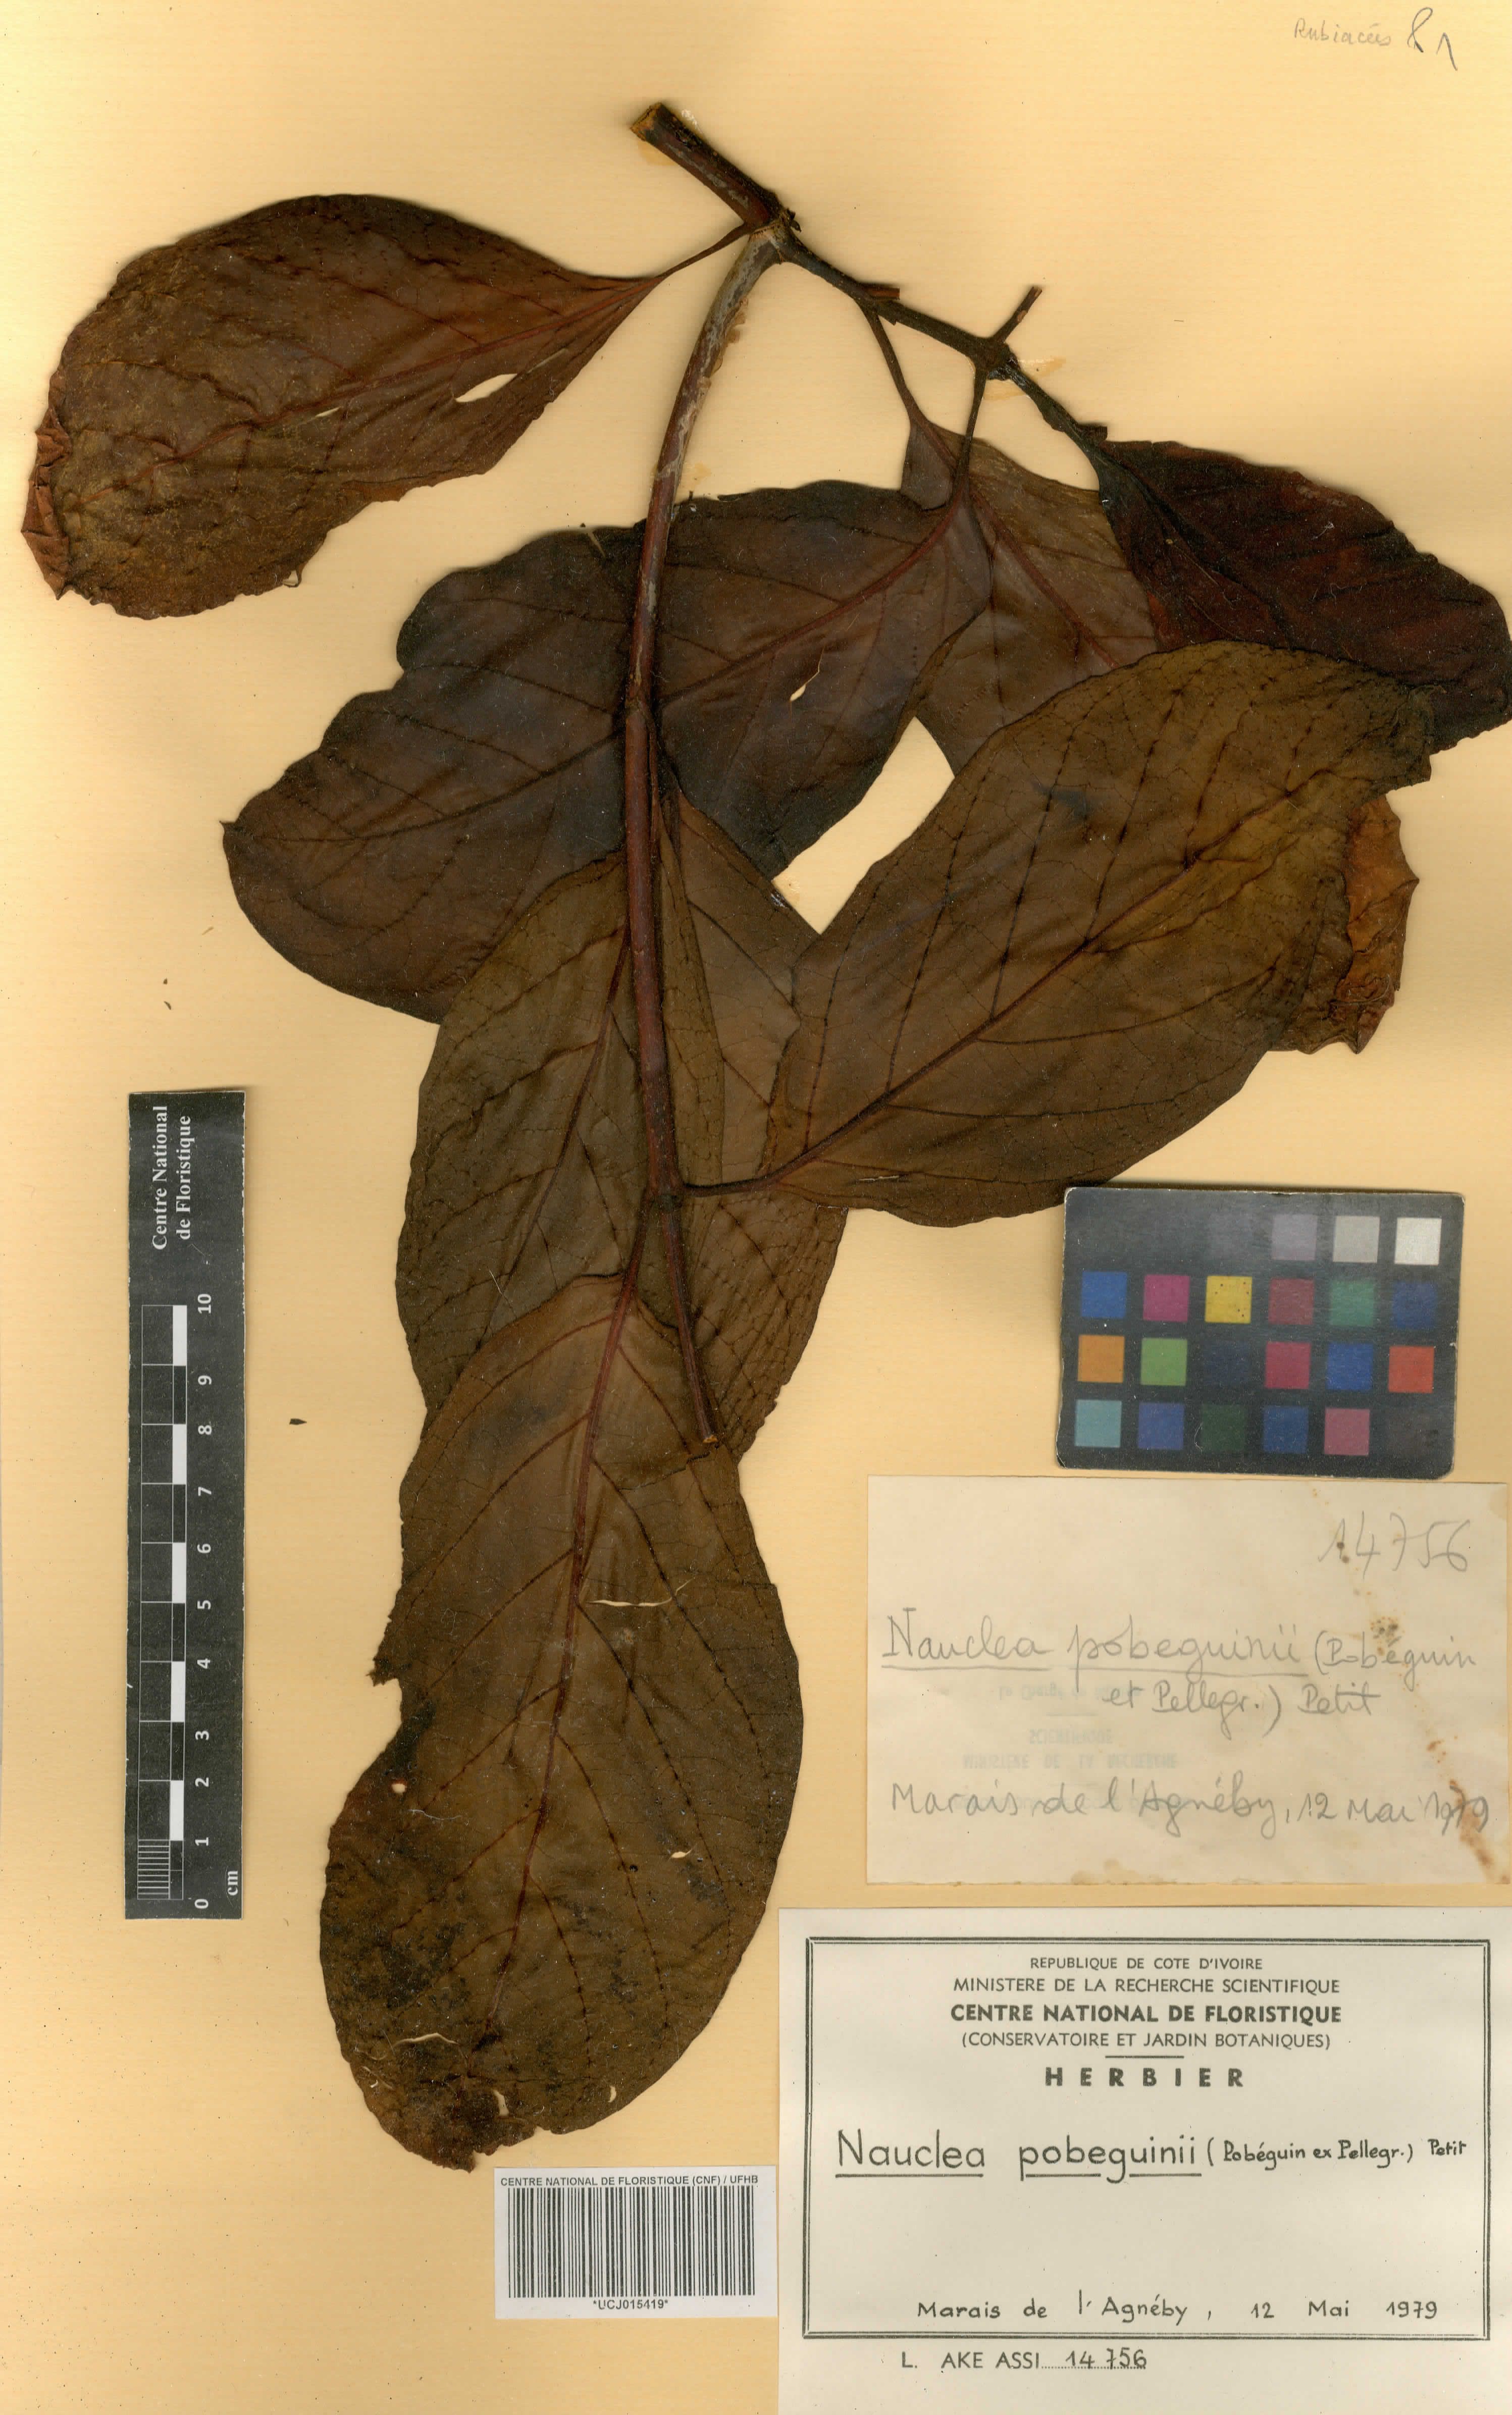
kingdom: Plantae
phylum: Tracheophyta
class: Magnoliopsida
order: Gentianales
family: Rubiaceae
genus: Nauclea
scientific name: Nauclea pobeguinii
